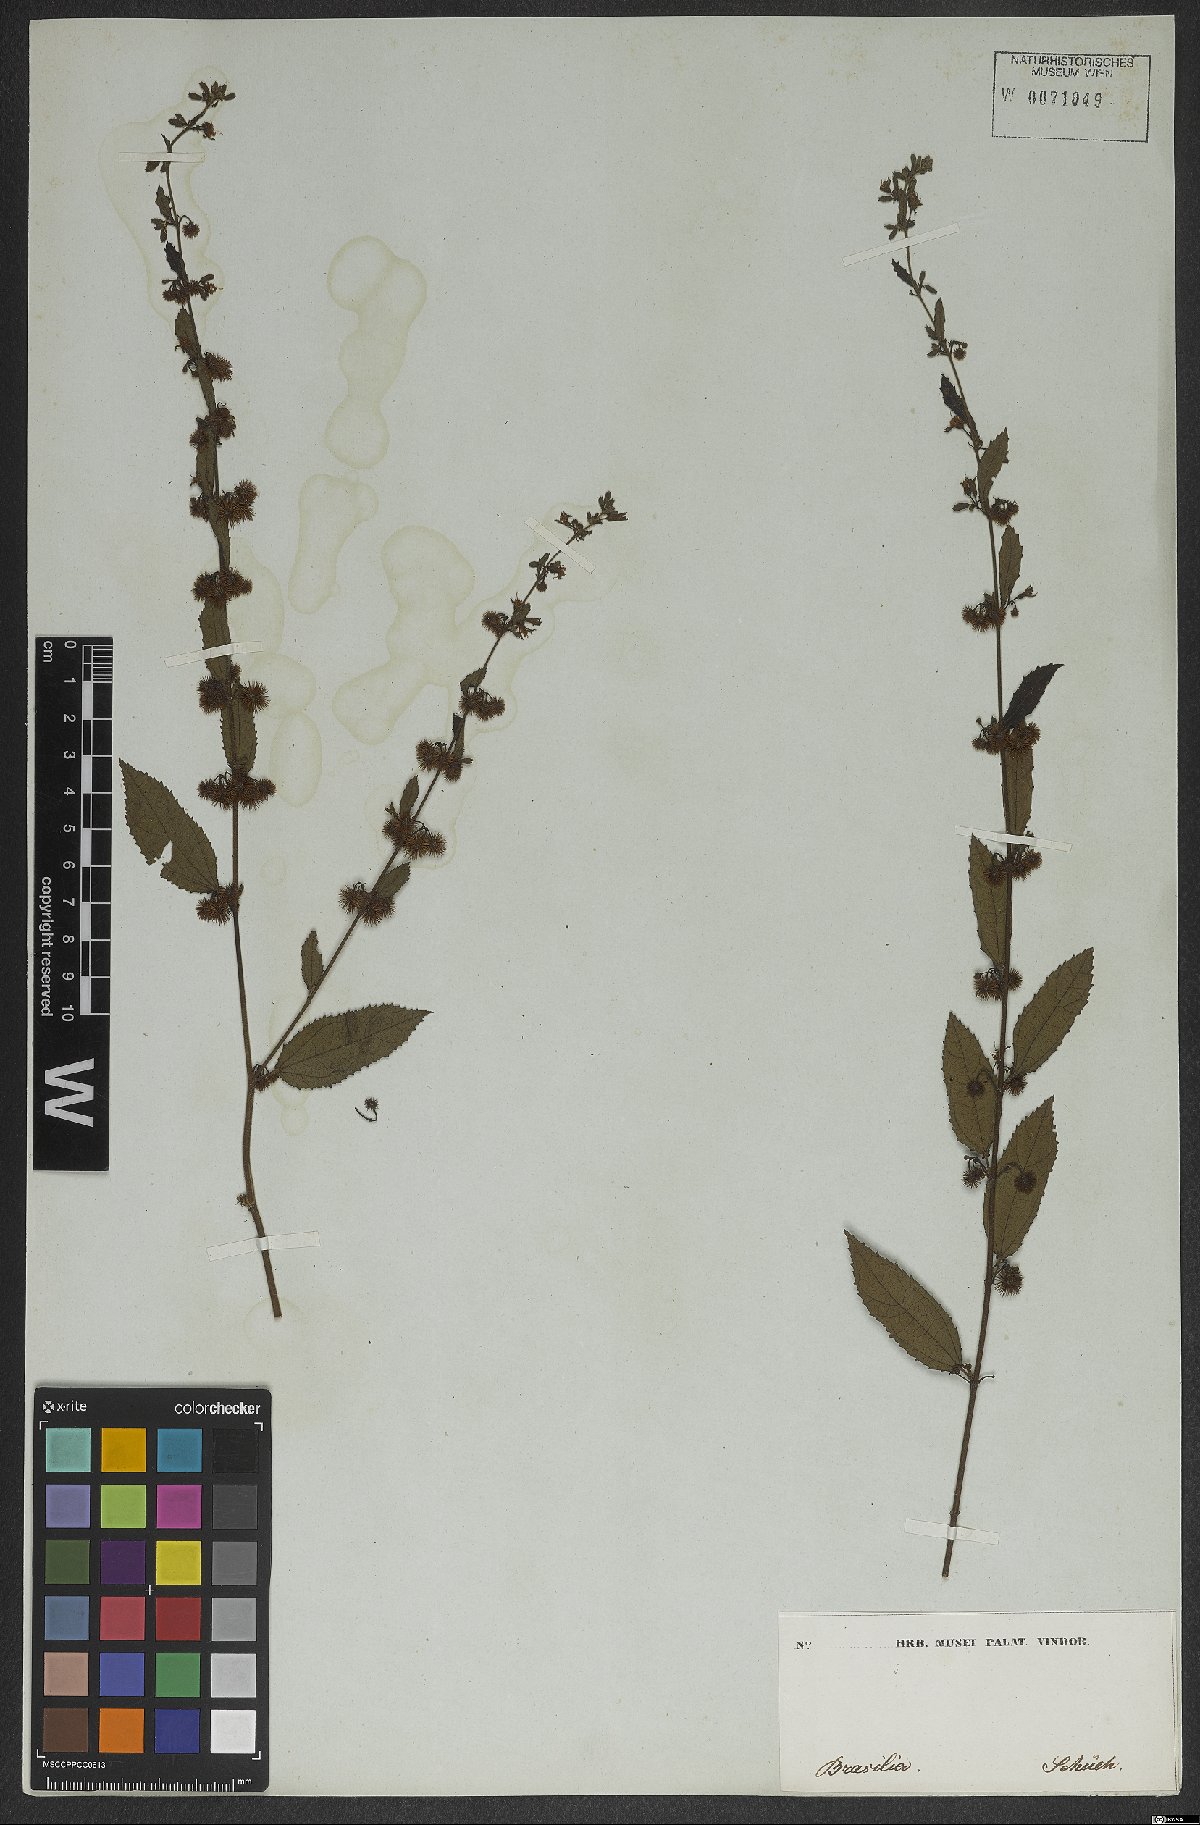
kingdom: Plantae
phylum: Tracheophyta
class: Magnoliopsida
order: Malvales
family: Malvaceae
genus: Triumfetta
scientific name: Triumfetta
